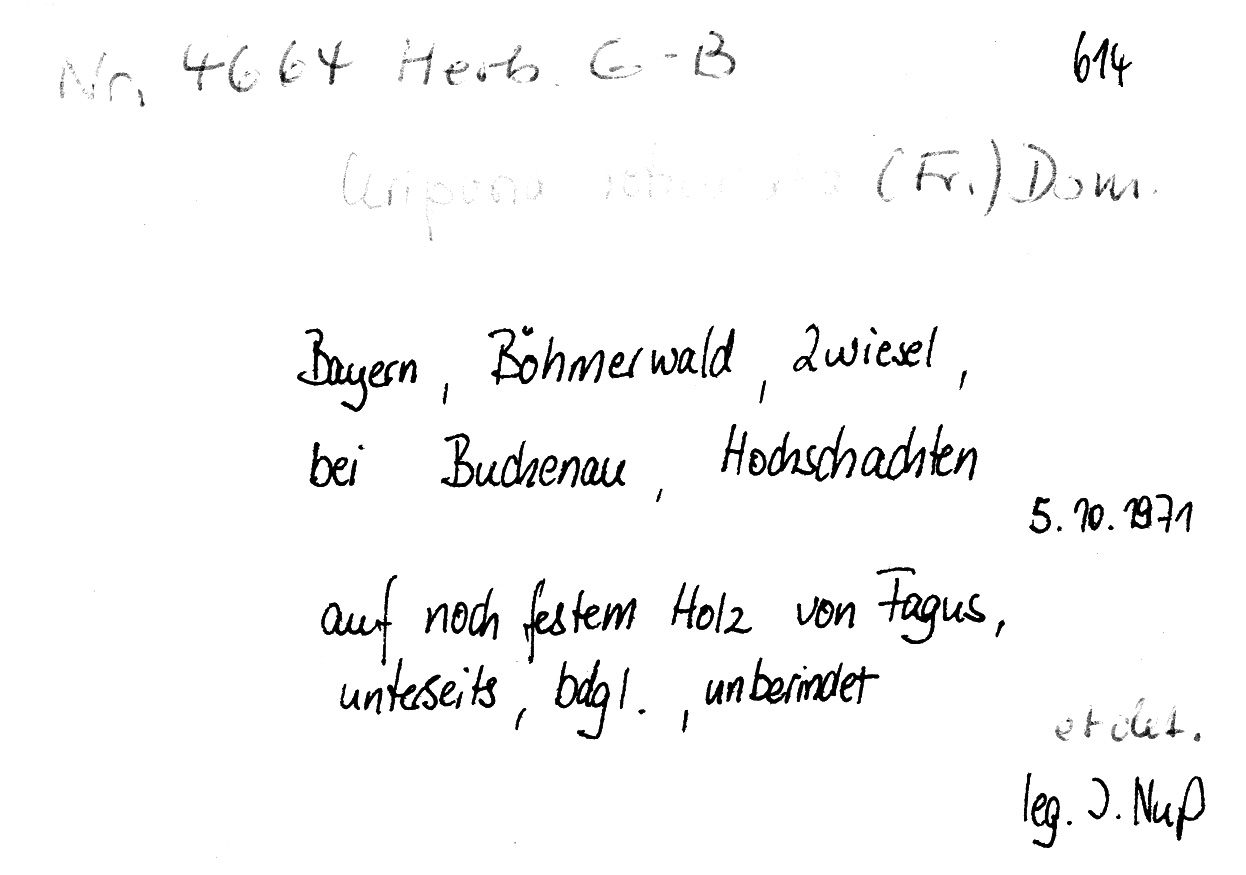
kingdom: Plantae
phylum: Tracheophyta
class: Magnoliopsida
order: Fagales
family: Fagaceae
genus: Fagus
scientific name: Fagus sylvatica
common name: Beech
